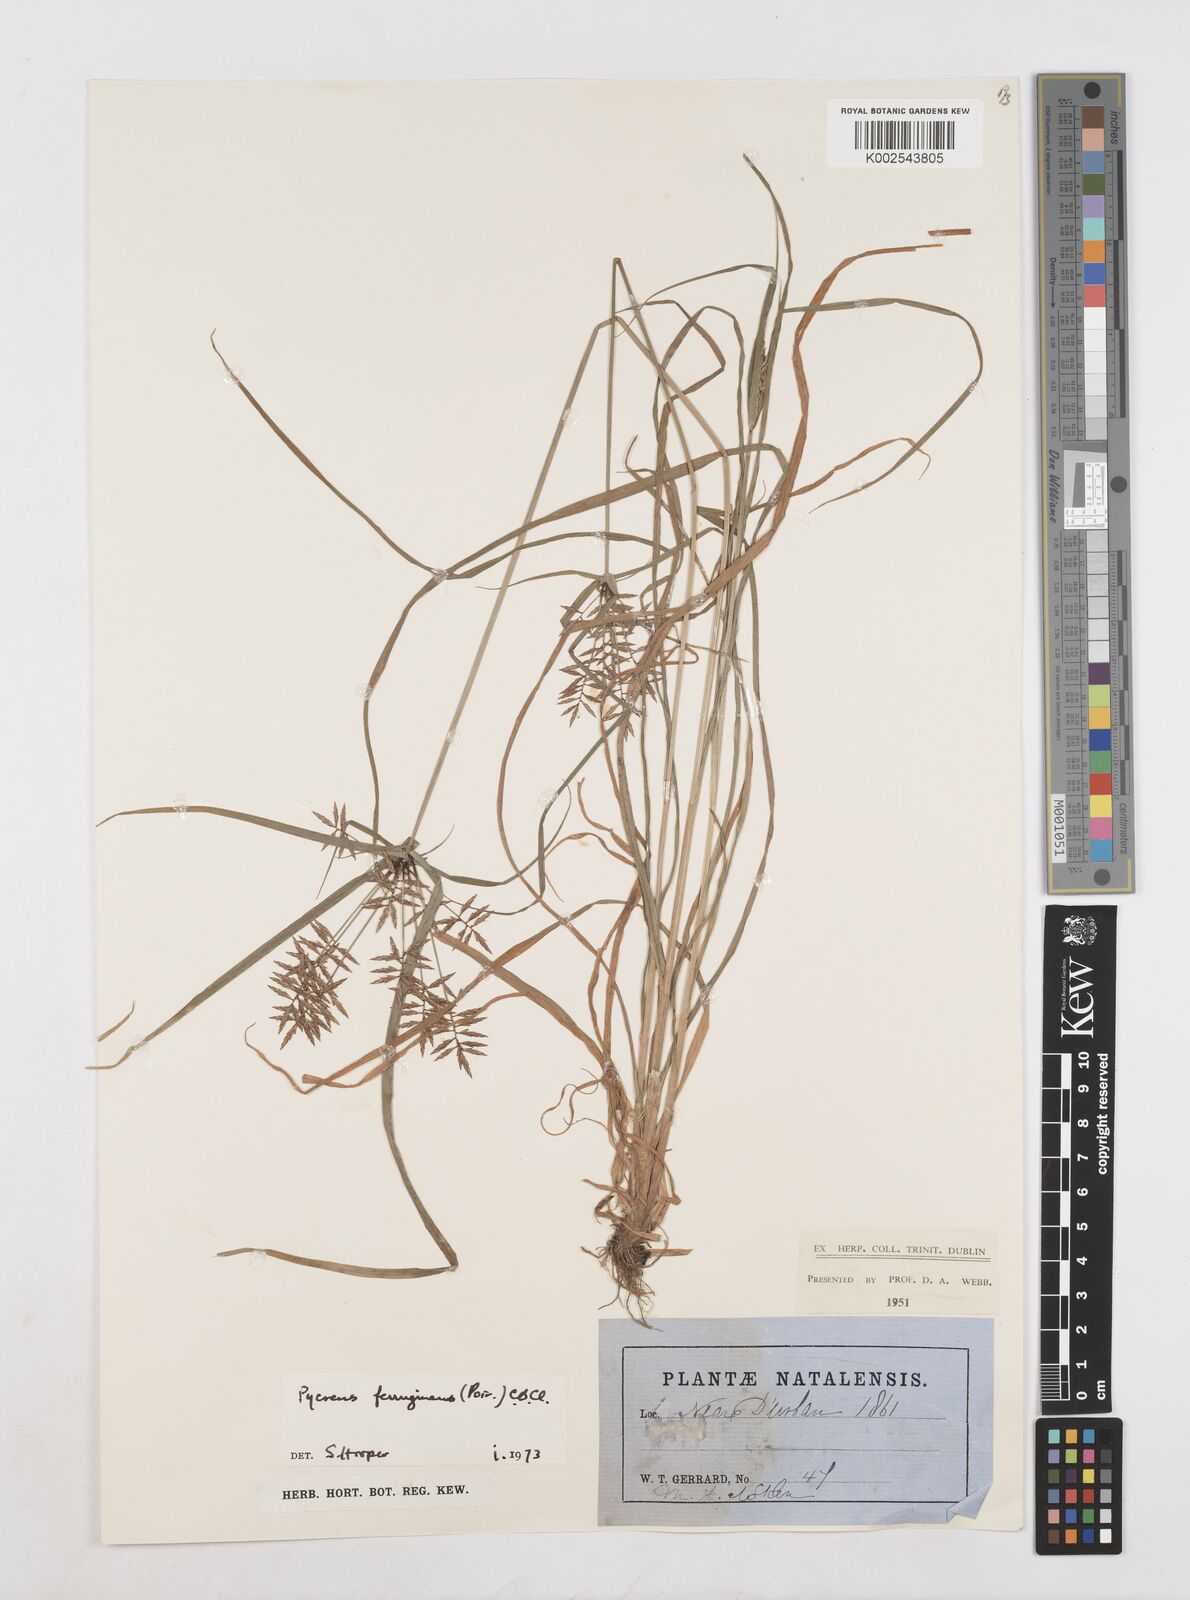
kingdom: Plantae
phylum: Tracheophyta
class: Liliopsida
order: Poales
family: Cyperaceae
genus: Cyperus
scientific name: Cyperus intactus
